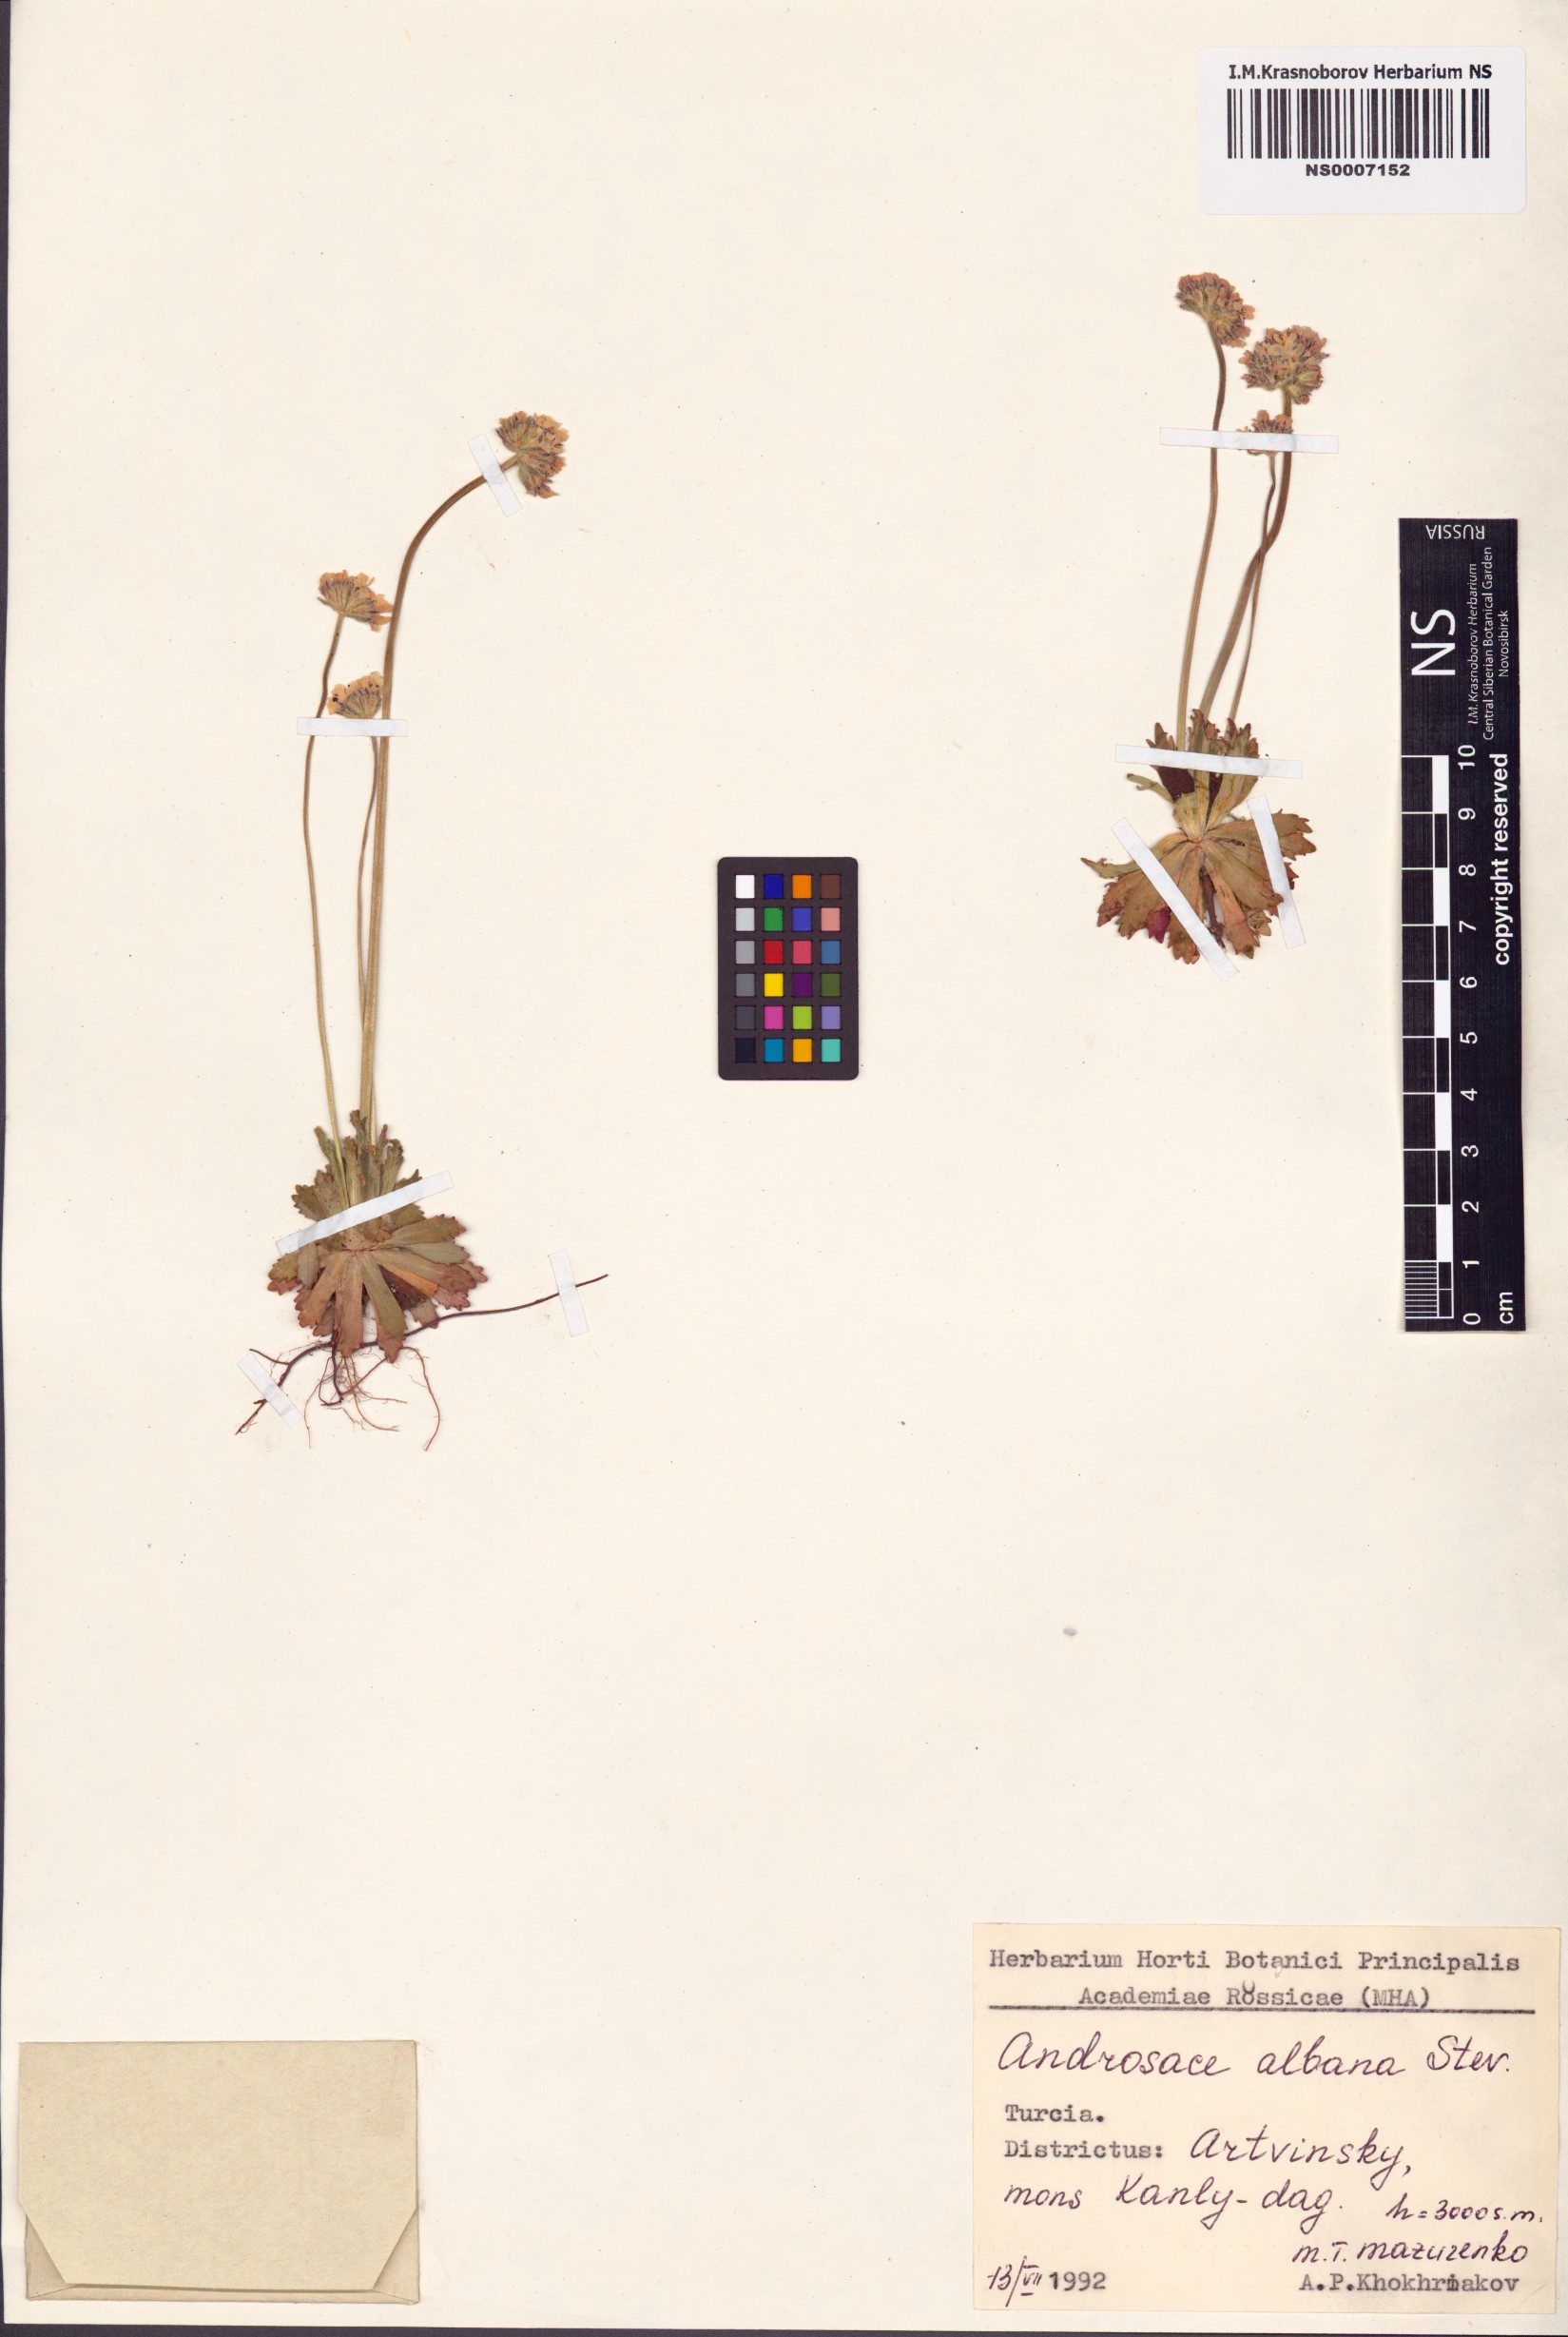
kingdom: Plantae
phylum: Tracheophyta
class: Magnoliopsida
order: Ericales
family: Primulaceae
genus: Androsace
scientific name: Androsace albana
